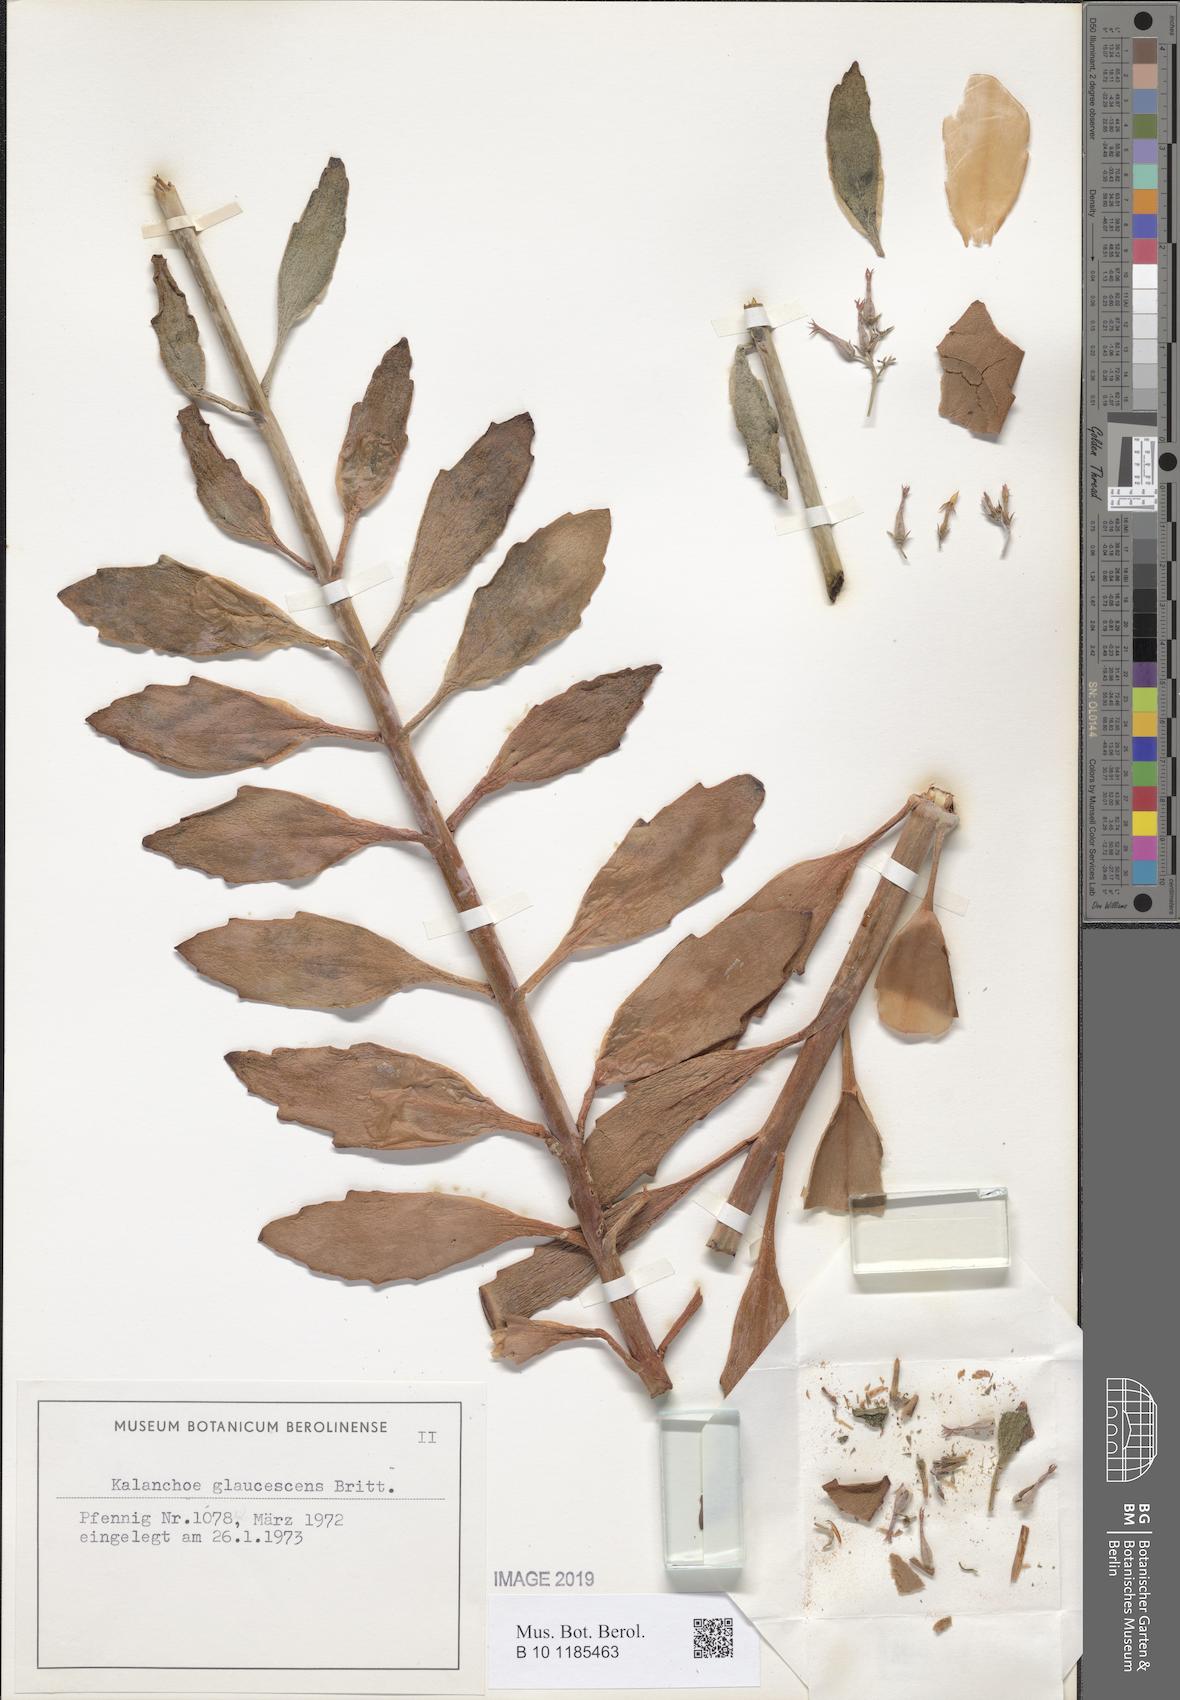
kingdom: Plantae
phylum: Tracheophyta
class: Magnoliopsida
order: Saxifragales
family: Crassulaceae
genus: Kalanchoe
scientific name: Kalanchoe glaucescens
